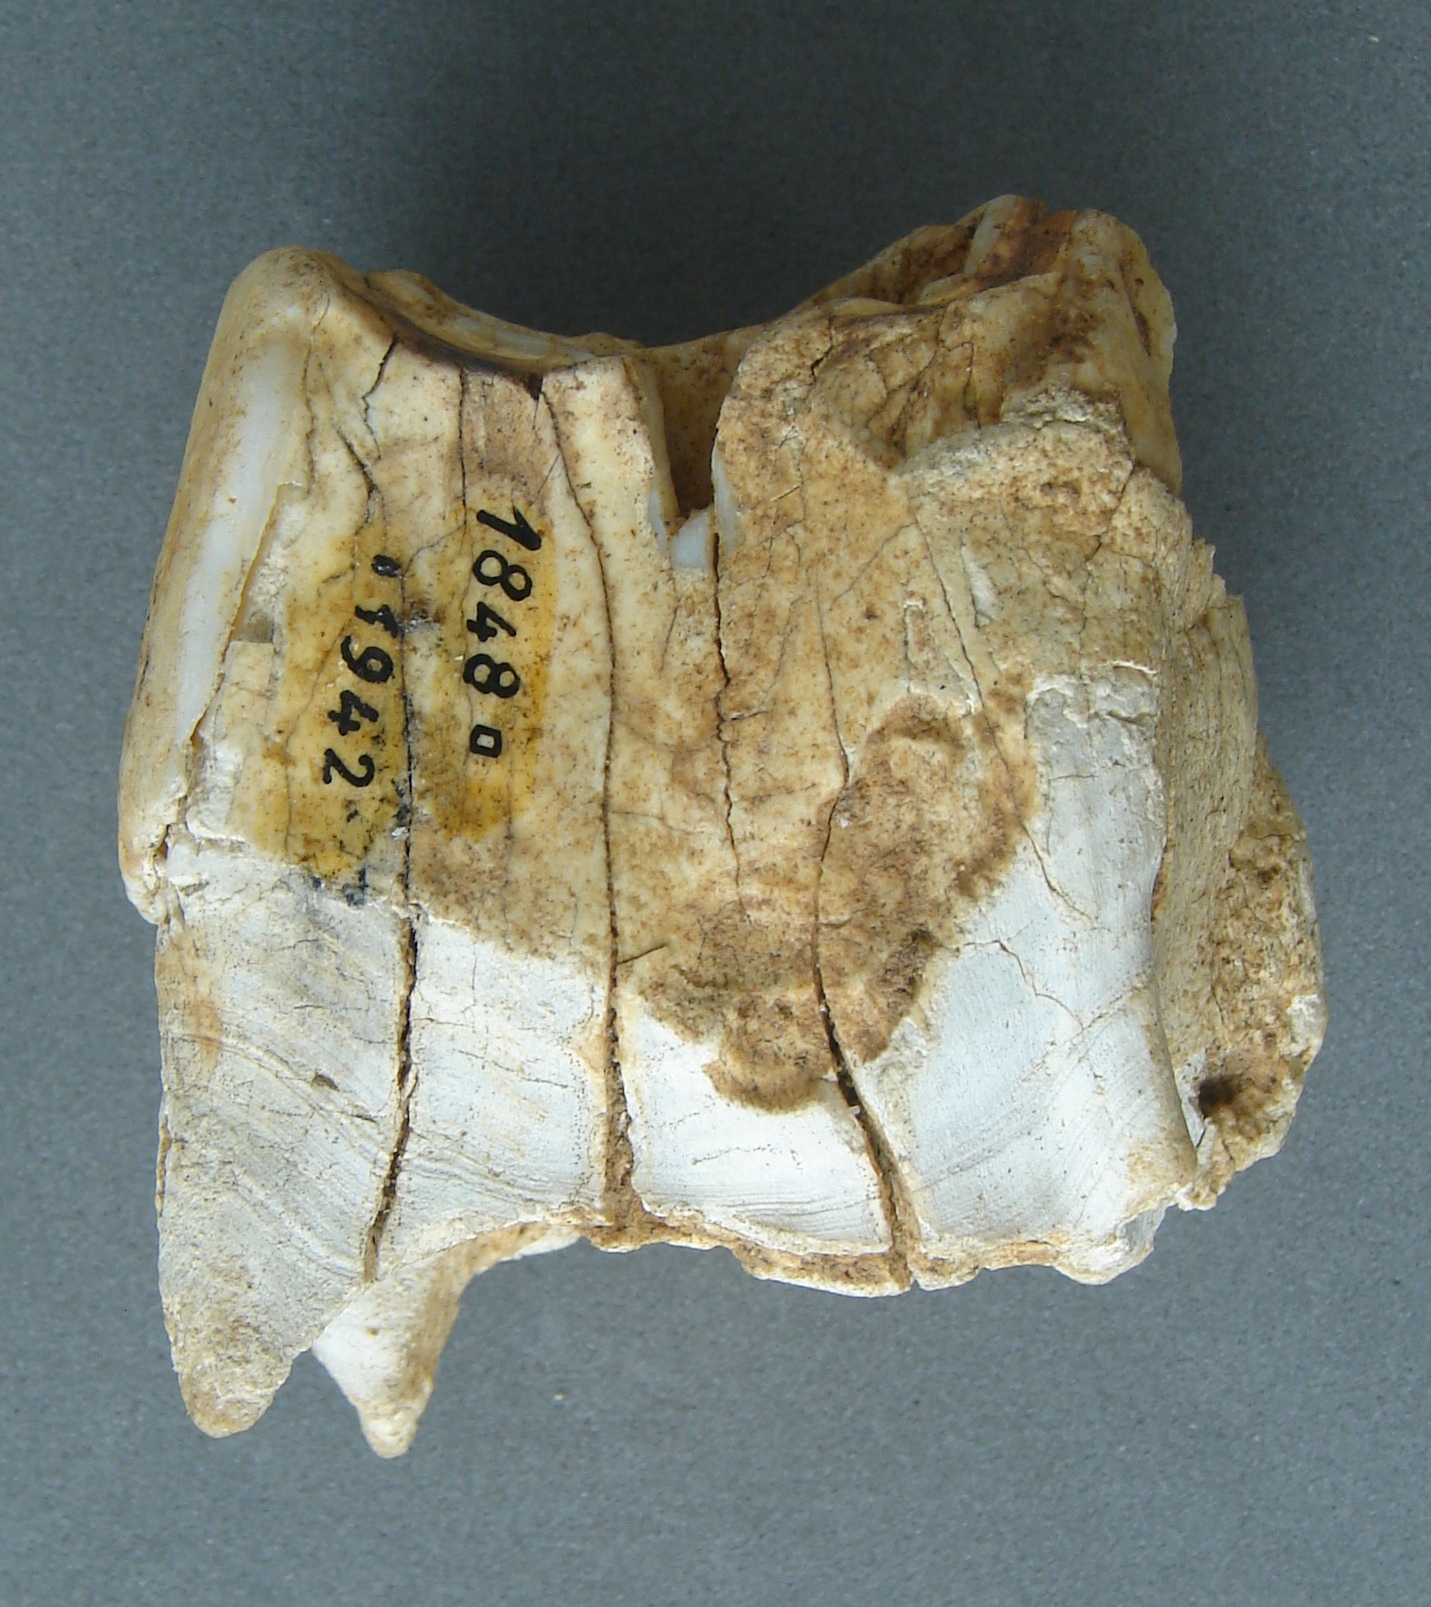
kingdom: Animalia
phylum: Chordata
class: Mammalia
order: Perissodactyla
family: Rhinocerotidae
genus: Rhinoceros
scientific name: Rhinoceros
